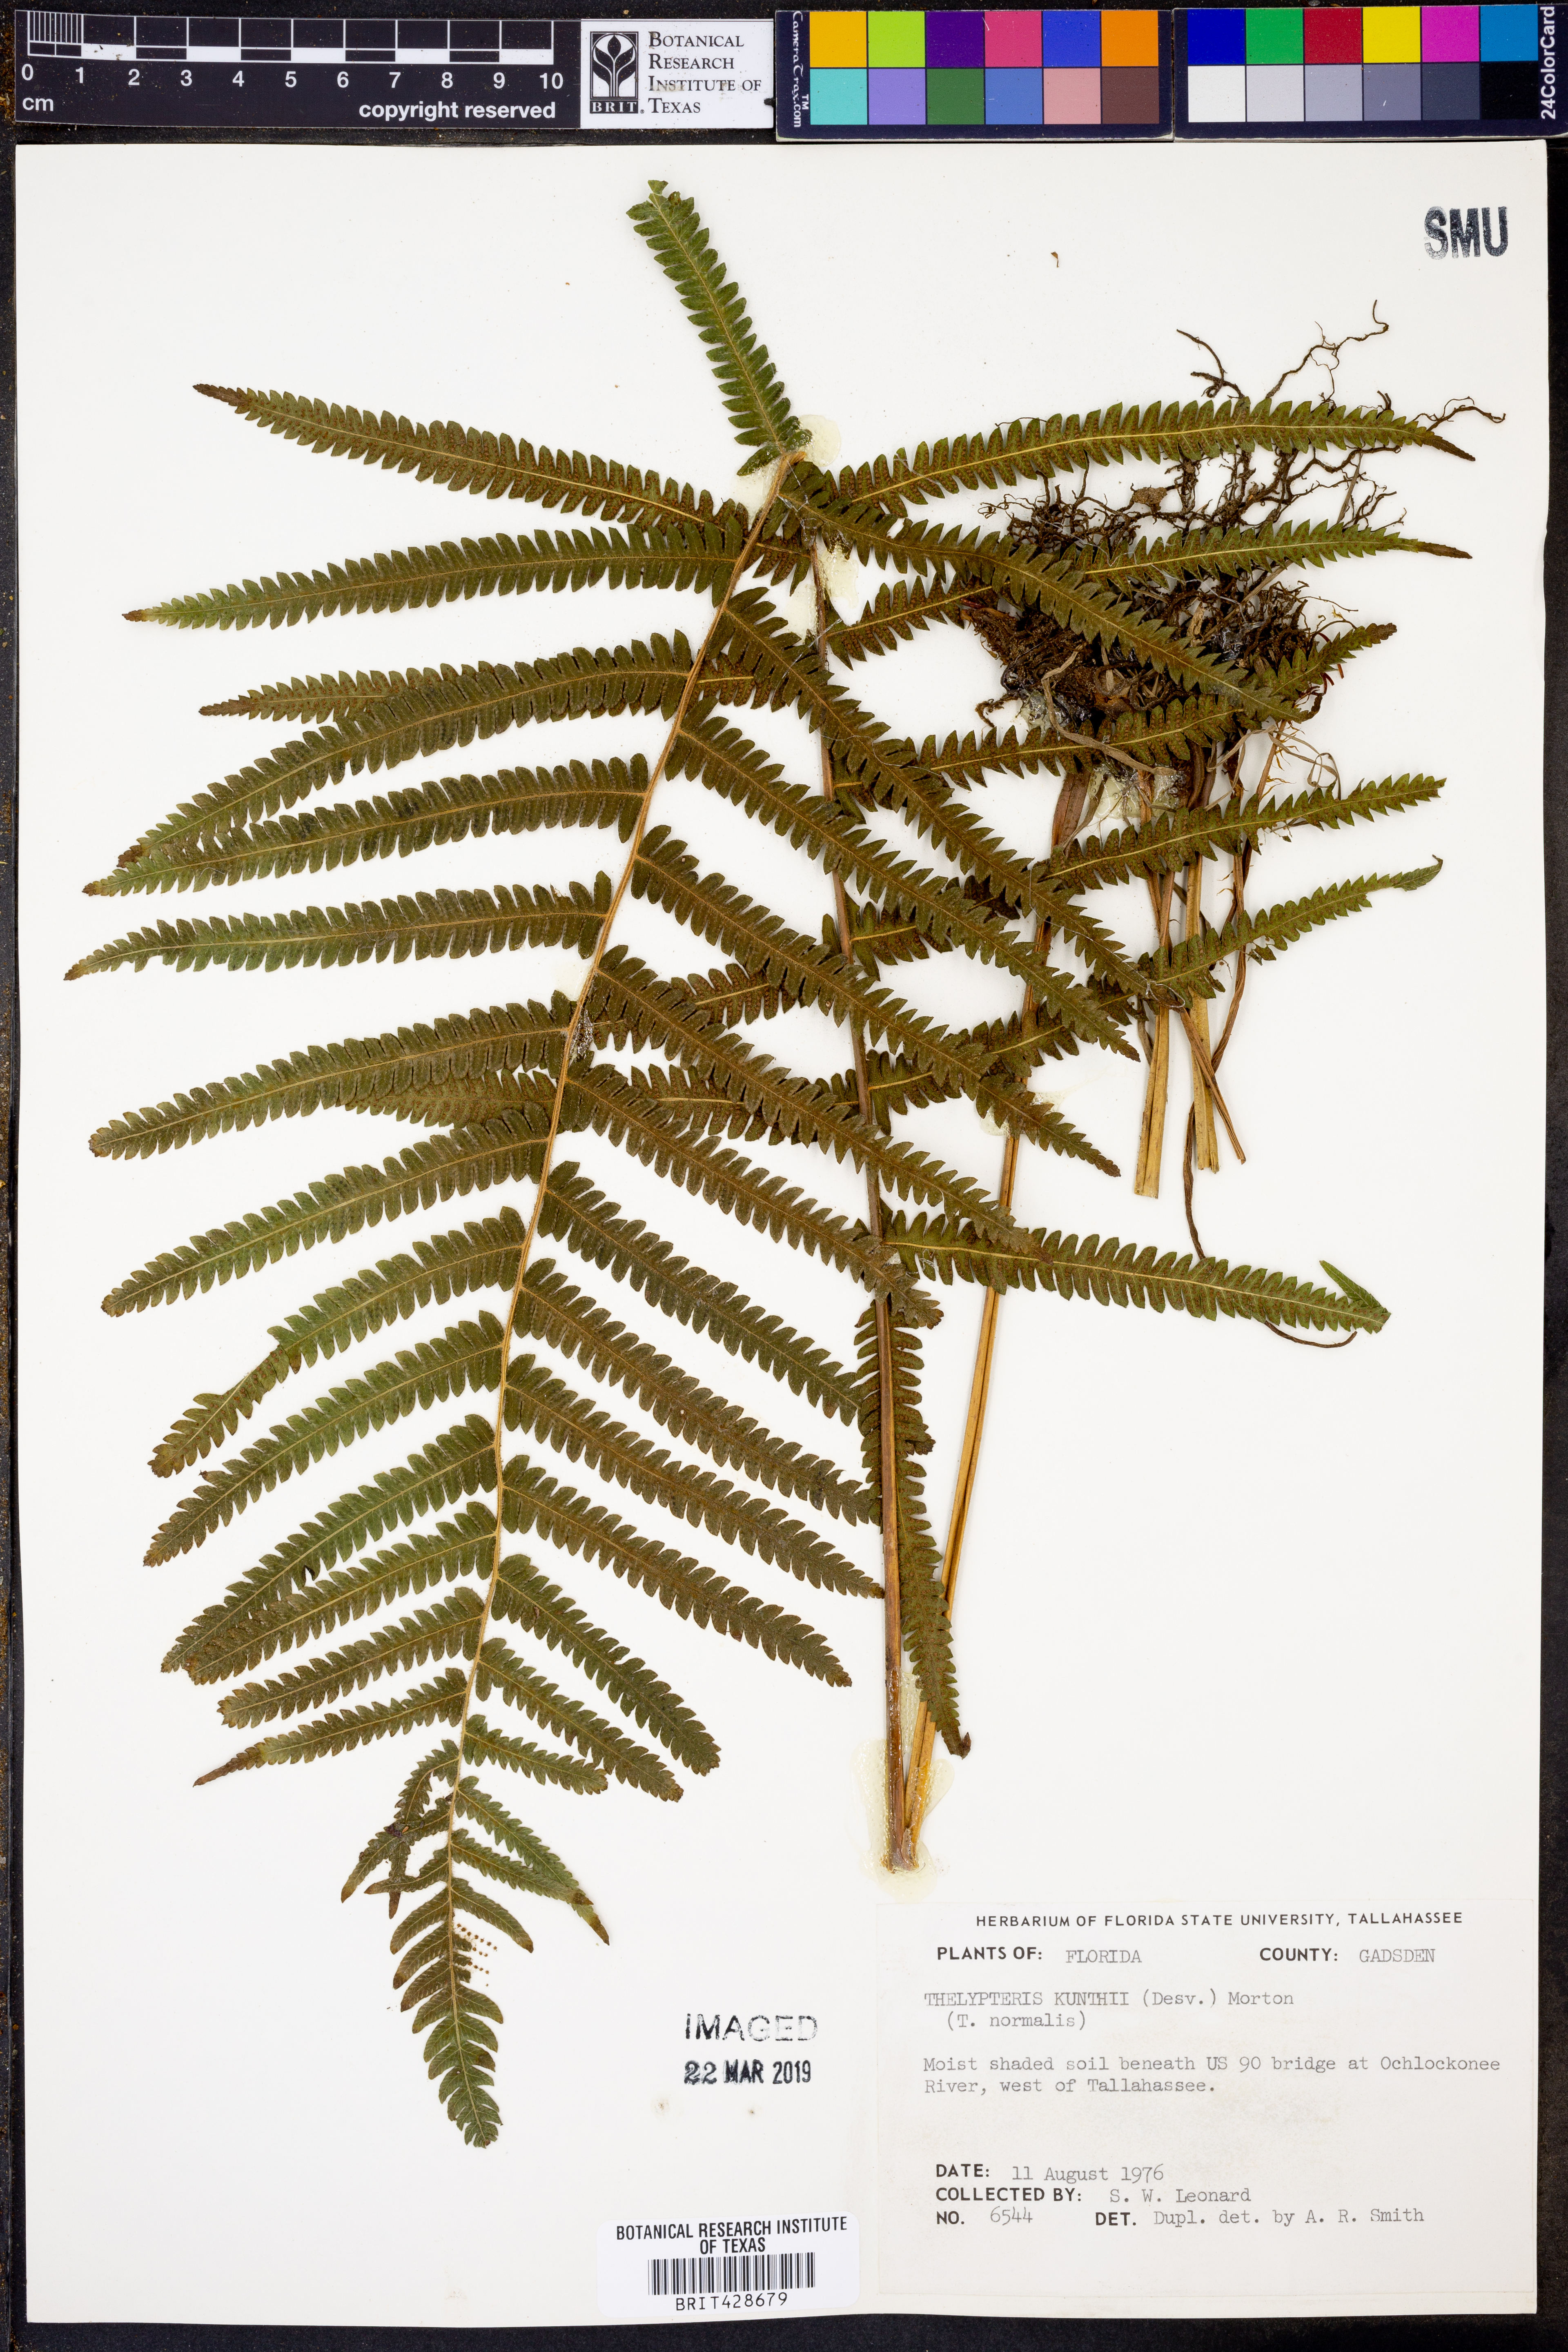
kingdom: Plantae
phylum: Tracheophyta
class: Polypodiopsida
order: Polypodiales
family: Thelypteridaceae
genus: Pelazoneuron
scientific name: Pelazoneuron kunthii
